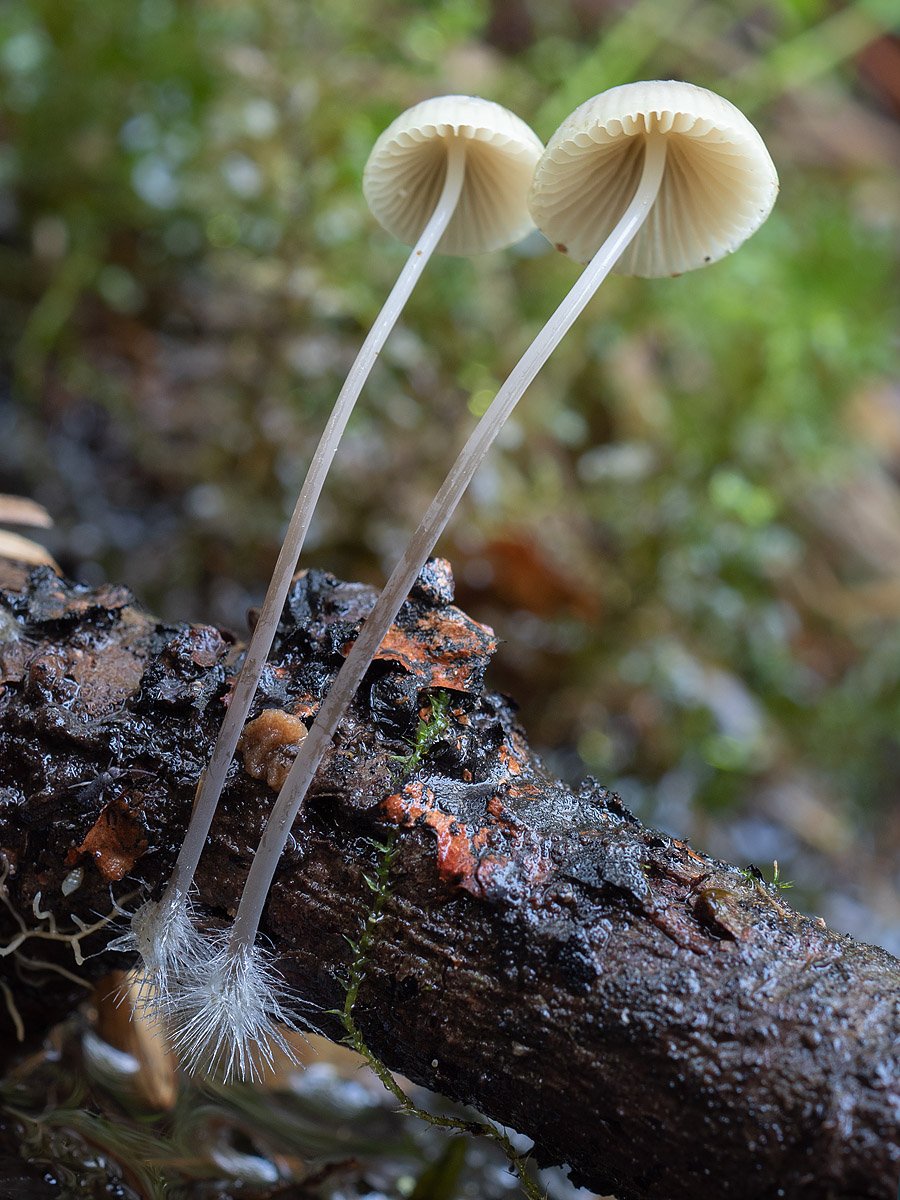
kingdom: Fungi
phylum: Basidiomycota
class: Agaricomycetes
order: Agaricales
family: Mycenaceae
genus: Mycena
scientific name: Mycena arcangeliana
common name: oliven-huesvamp
